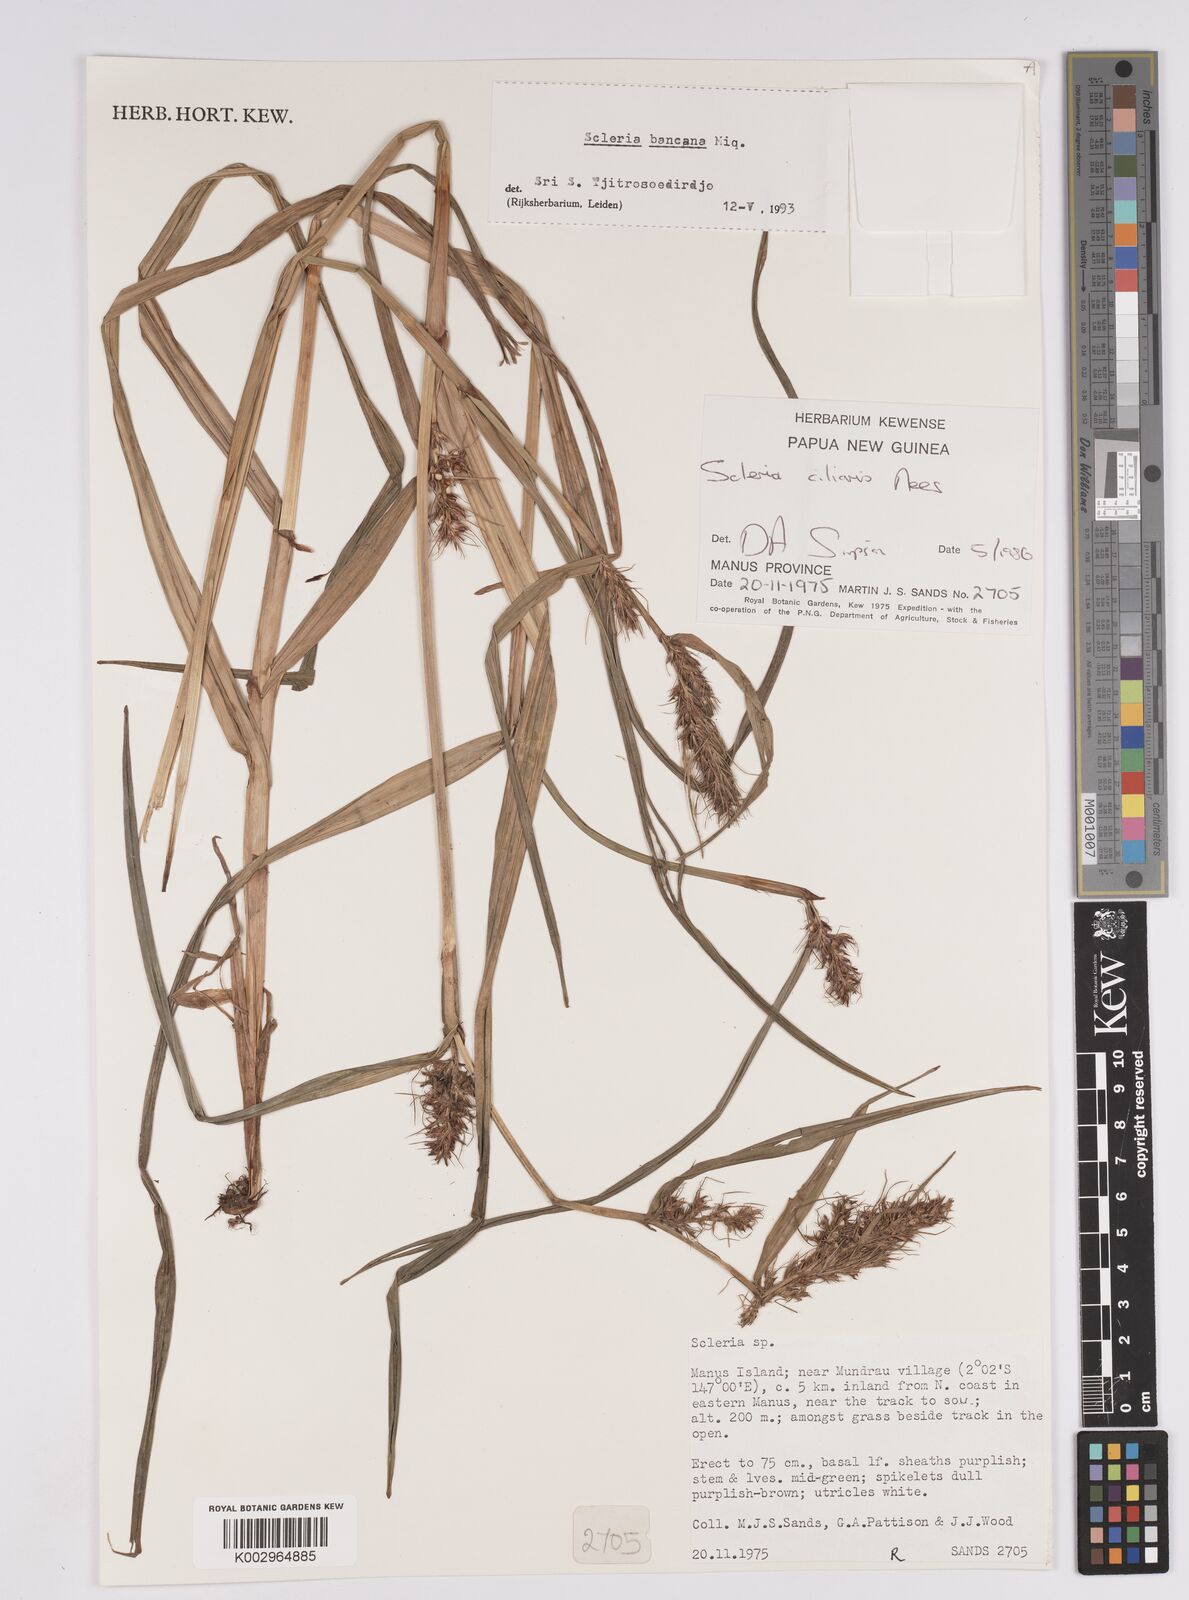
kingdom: Plantae
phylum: Tracheophyta
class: Liliopsida
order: Poales
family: Cyperaceae
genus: Scleria
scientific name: Scleria ciliaris
